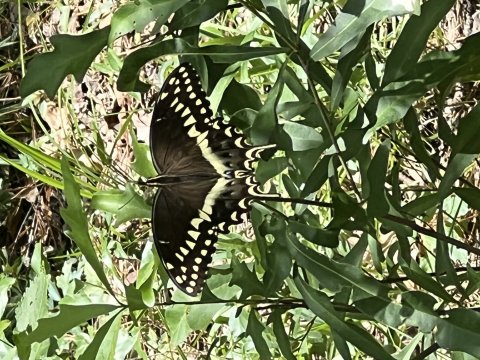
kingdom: Animalia
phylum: Arthropoda
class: Insecta
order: Lepidoptera
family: Papilionidae
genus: Pterourus
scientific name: Pterourus palamedes
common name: Palamedes Swallowtail
